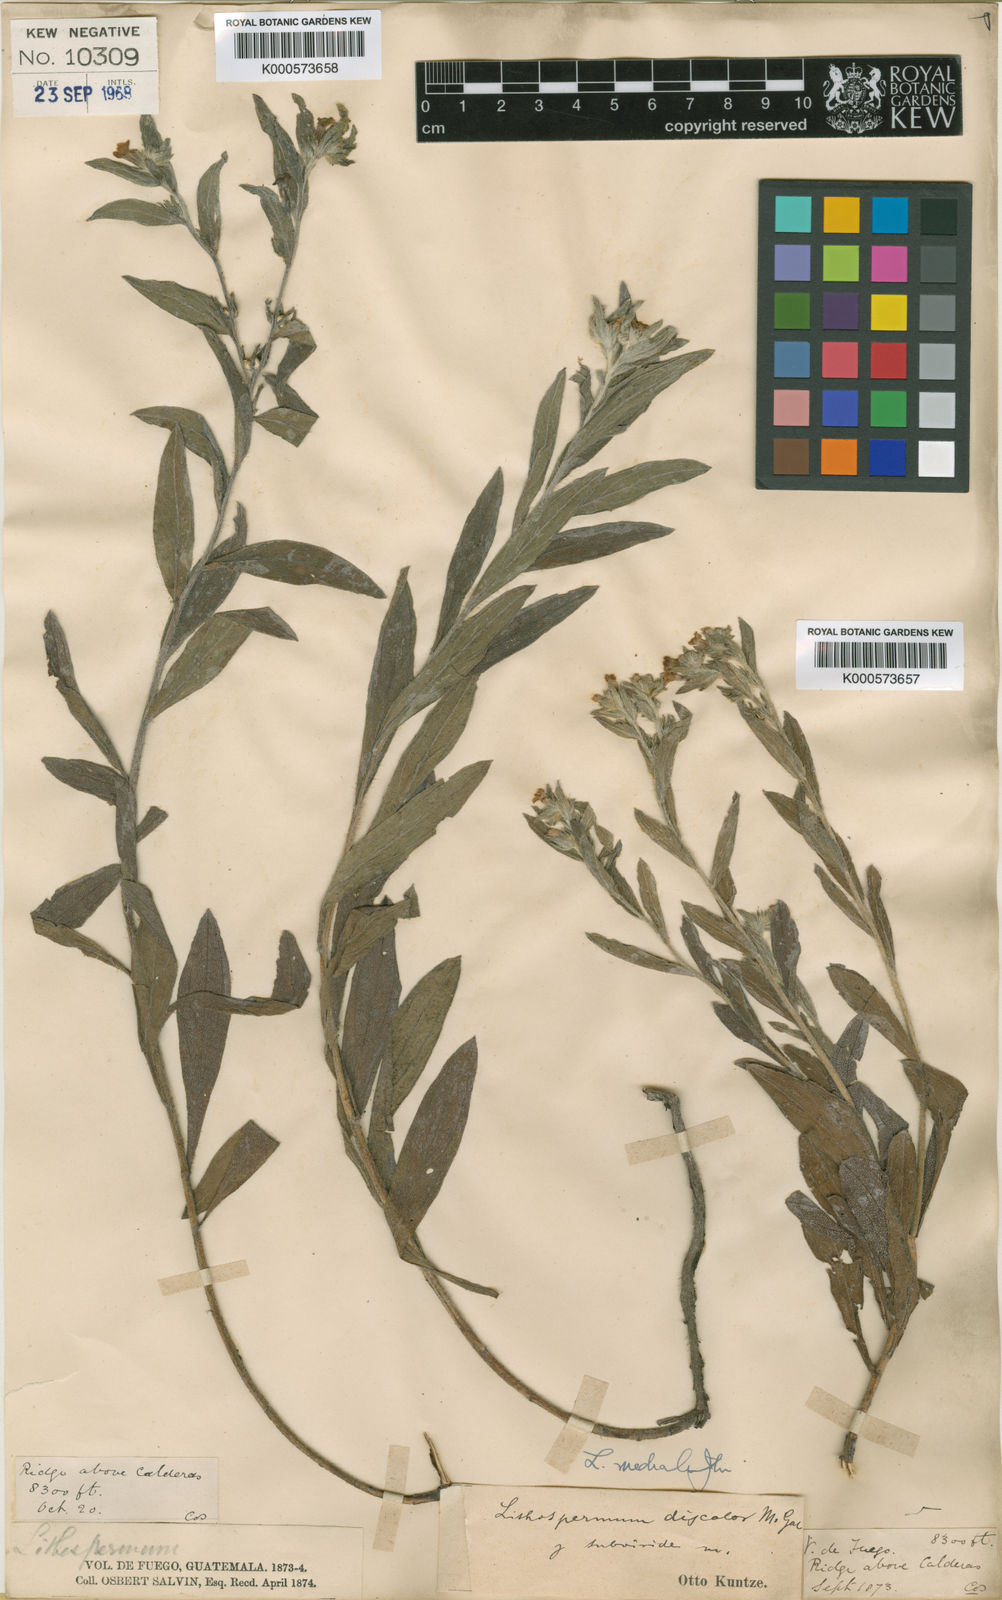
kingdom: Plantae
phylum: Tracheophyta
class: Magnoliopsida
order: Boraginales
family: Boraginaceae
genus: Lithospermum
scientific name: Lithospermum discolor
